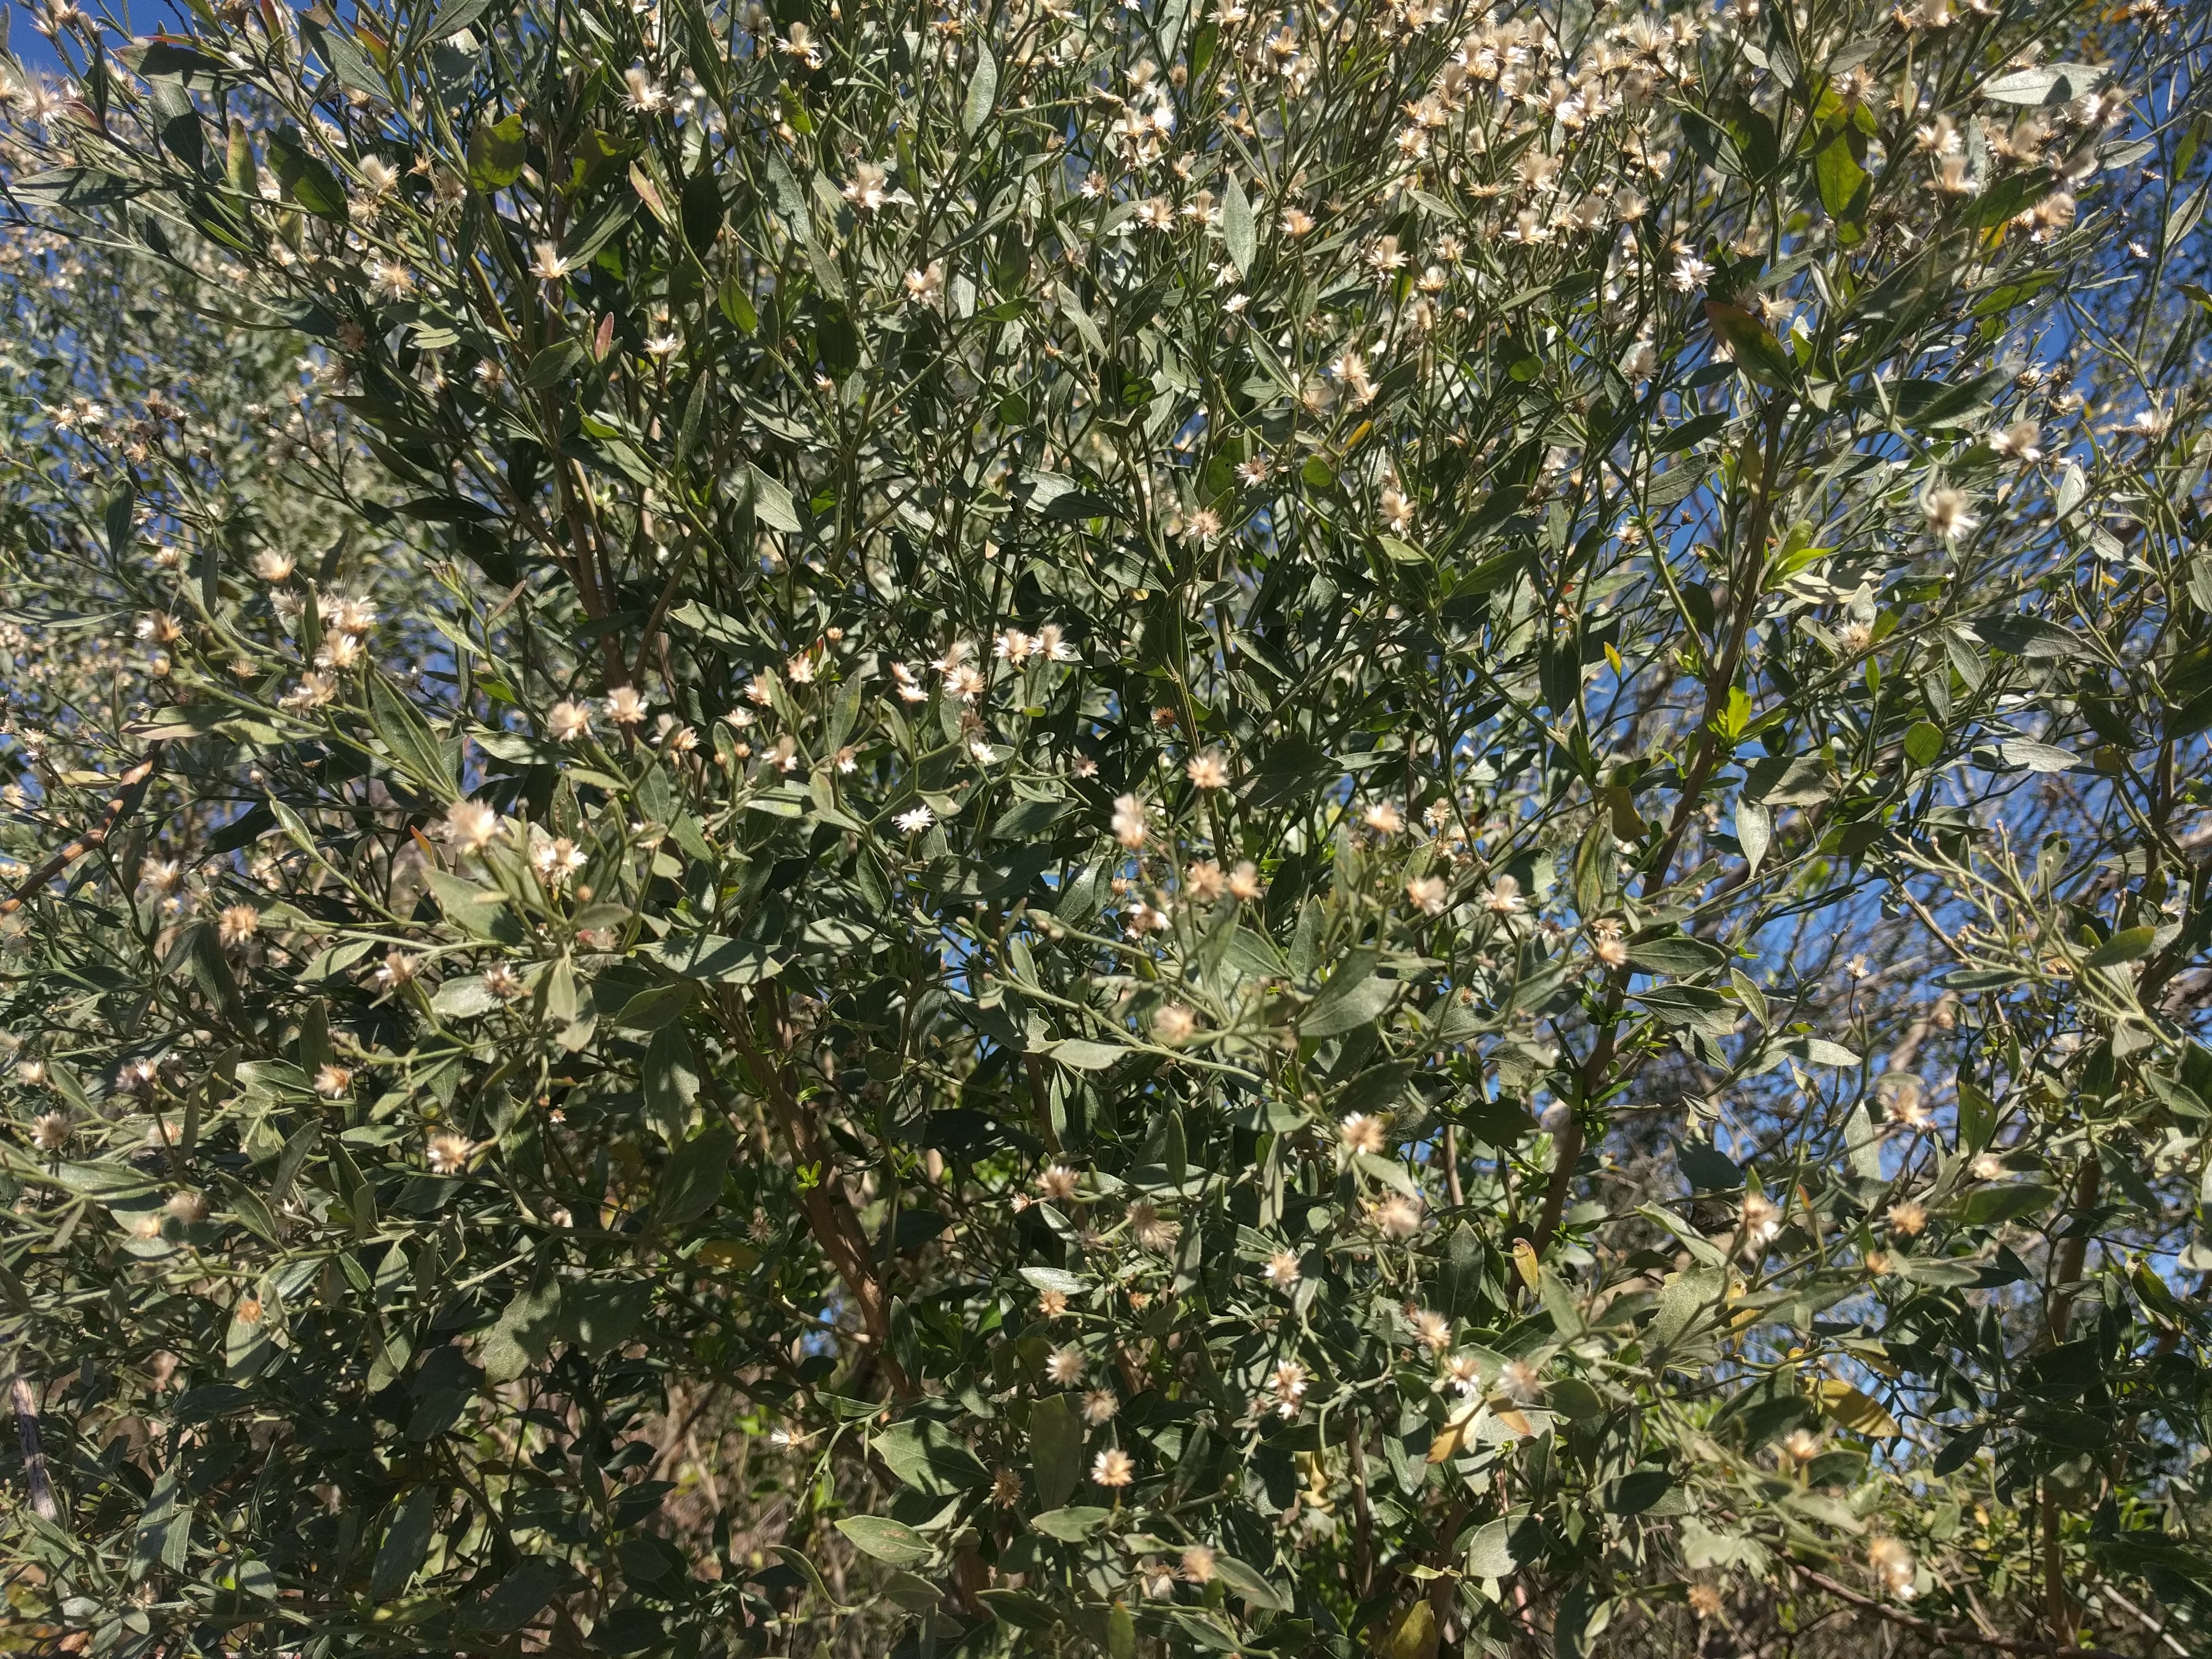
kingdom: Plantae
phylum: Tracheophyta
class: Magnoliopsida
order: Asterales
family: Asteraceae
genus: Baccharis
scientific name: Baccharis halimifolia
